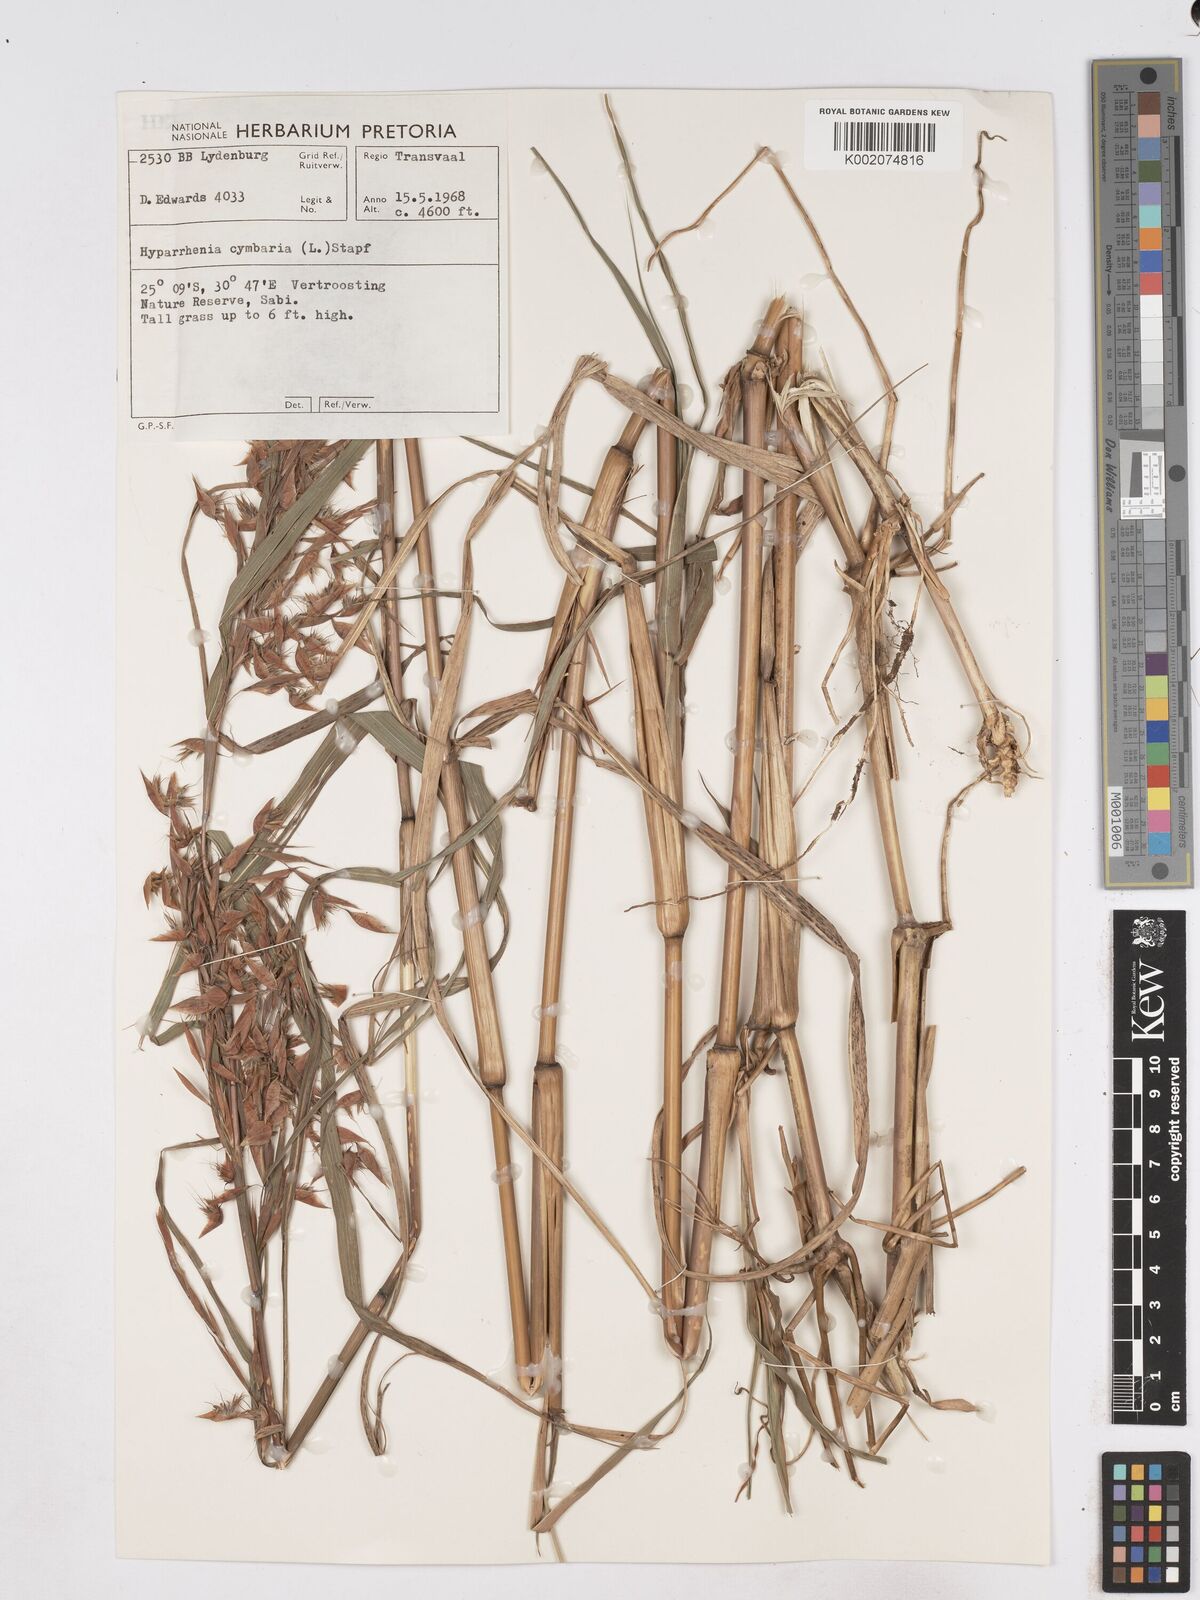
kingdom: Plantae
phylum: Tracheophyta
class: Liliopsida
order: Poales
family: Poaceae
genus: Hyparrhenia
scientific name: Hyparrhenia cymbaria
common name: Boat thatching grass
